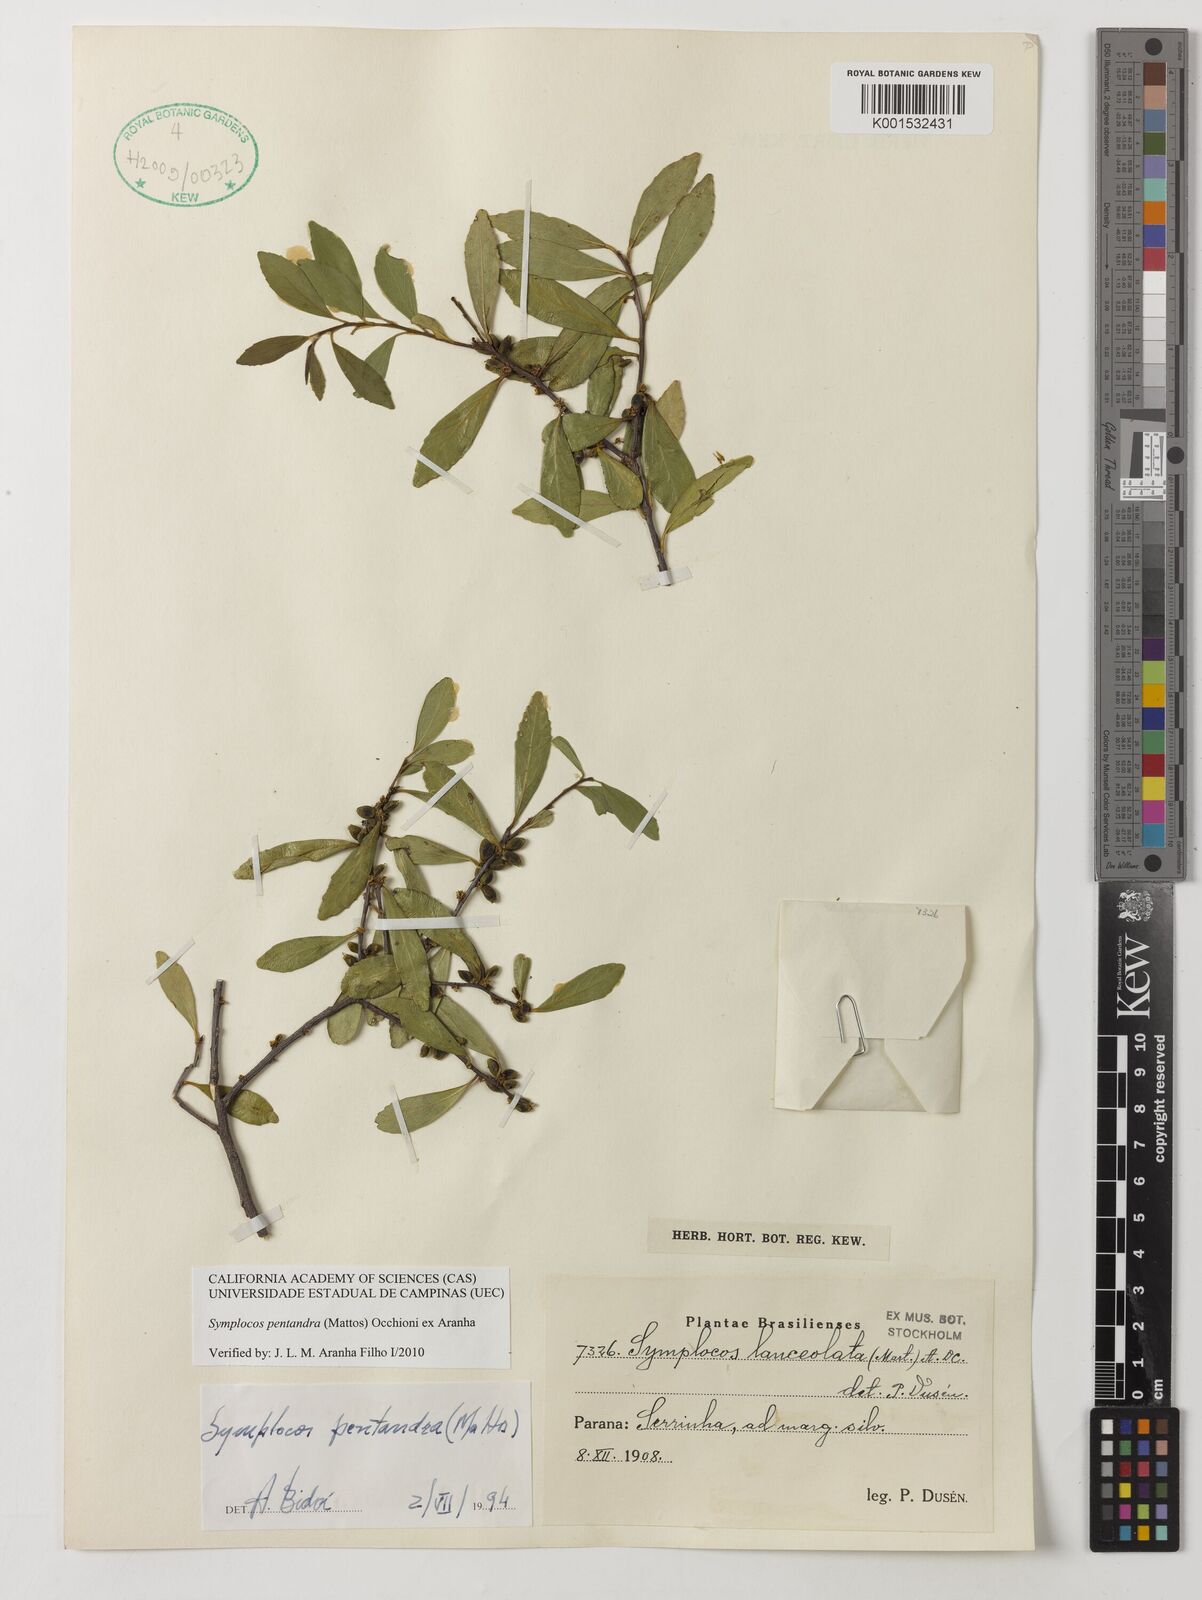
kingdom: Plantae
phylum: Tracheophyta
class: Magnoliopsida
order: Ericales
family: Symplocaceae
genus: Symplocos
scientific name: Symplocos pentandra
